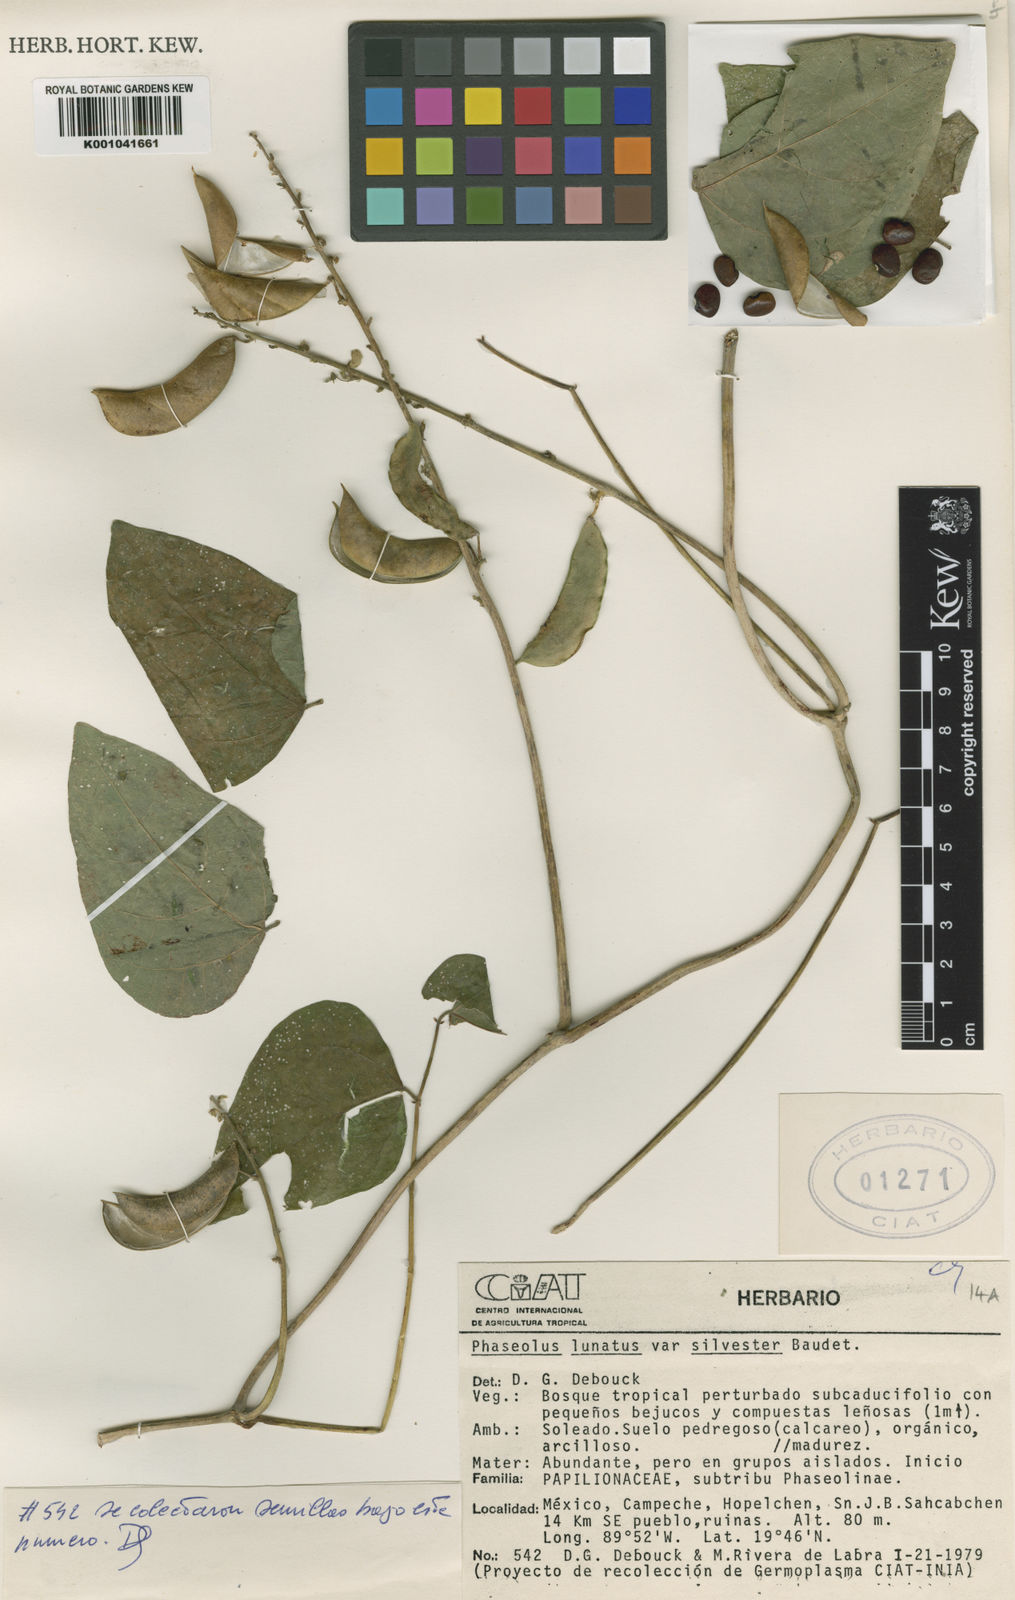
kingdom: Plantae
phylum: Tracheophyta
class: Magnoliopsida
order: Fabales
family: Fabaceae
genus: Phaseolus
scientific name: Phaseolus lunatus
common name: Sieva bean
